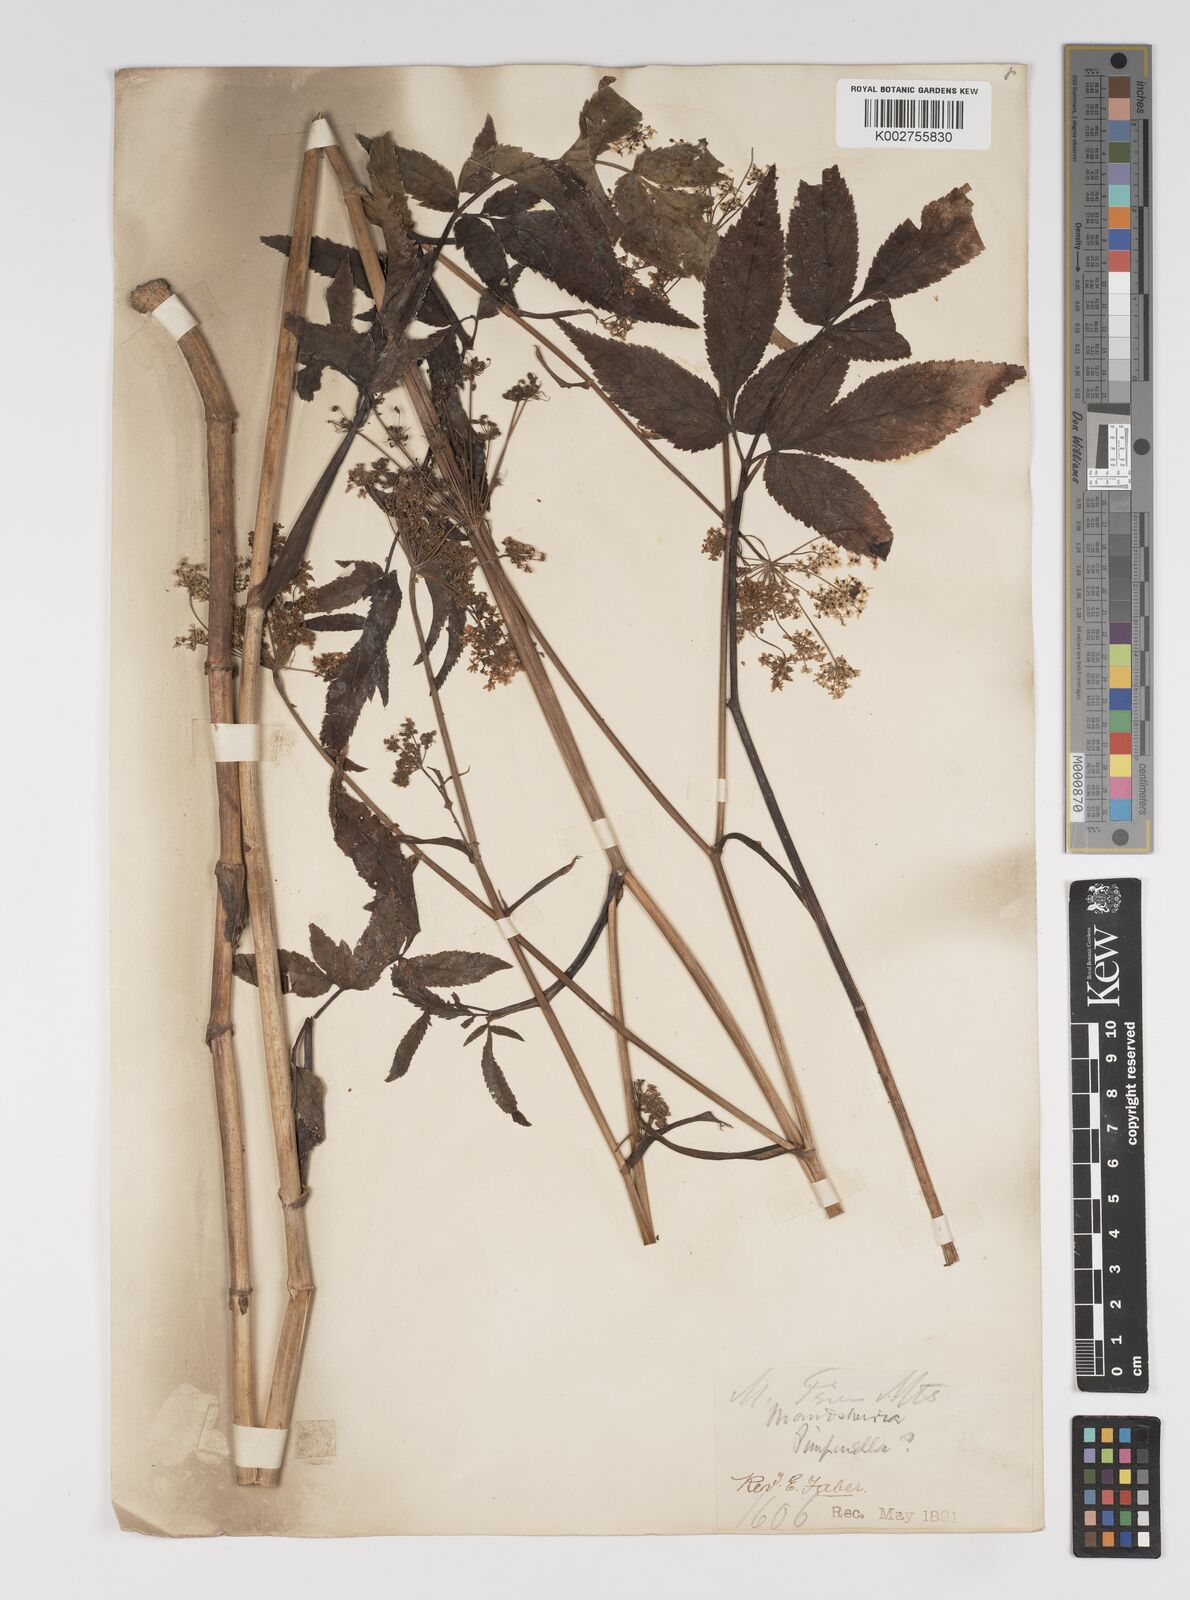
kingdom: Plantae
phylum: Tracheophyta
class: Magnoliopsida
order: Apiales
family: Apiaceae
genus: Pimpinella
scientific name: Pimpinella
